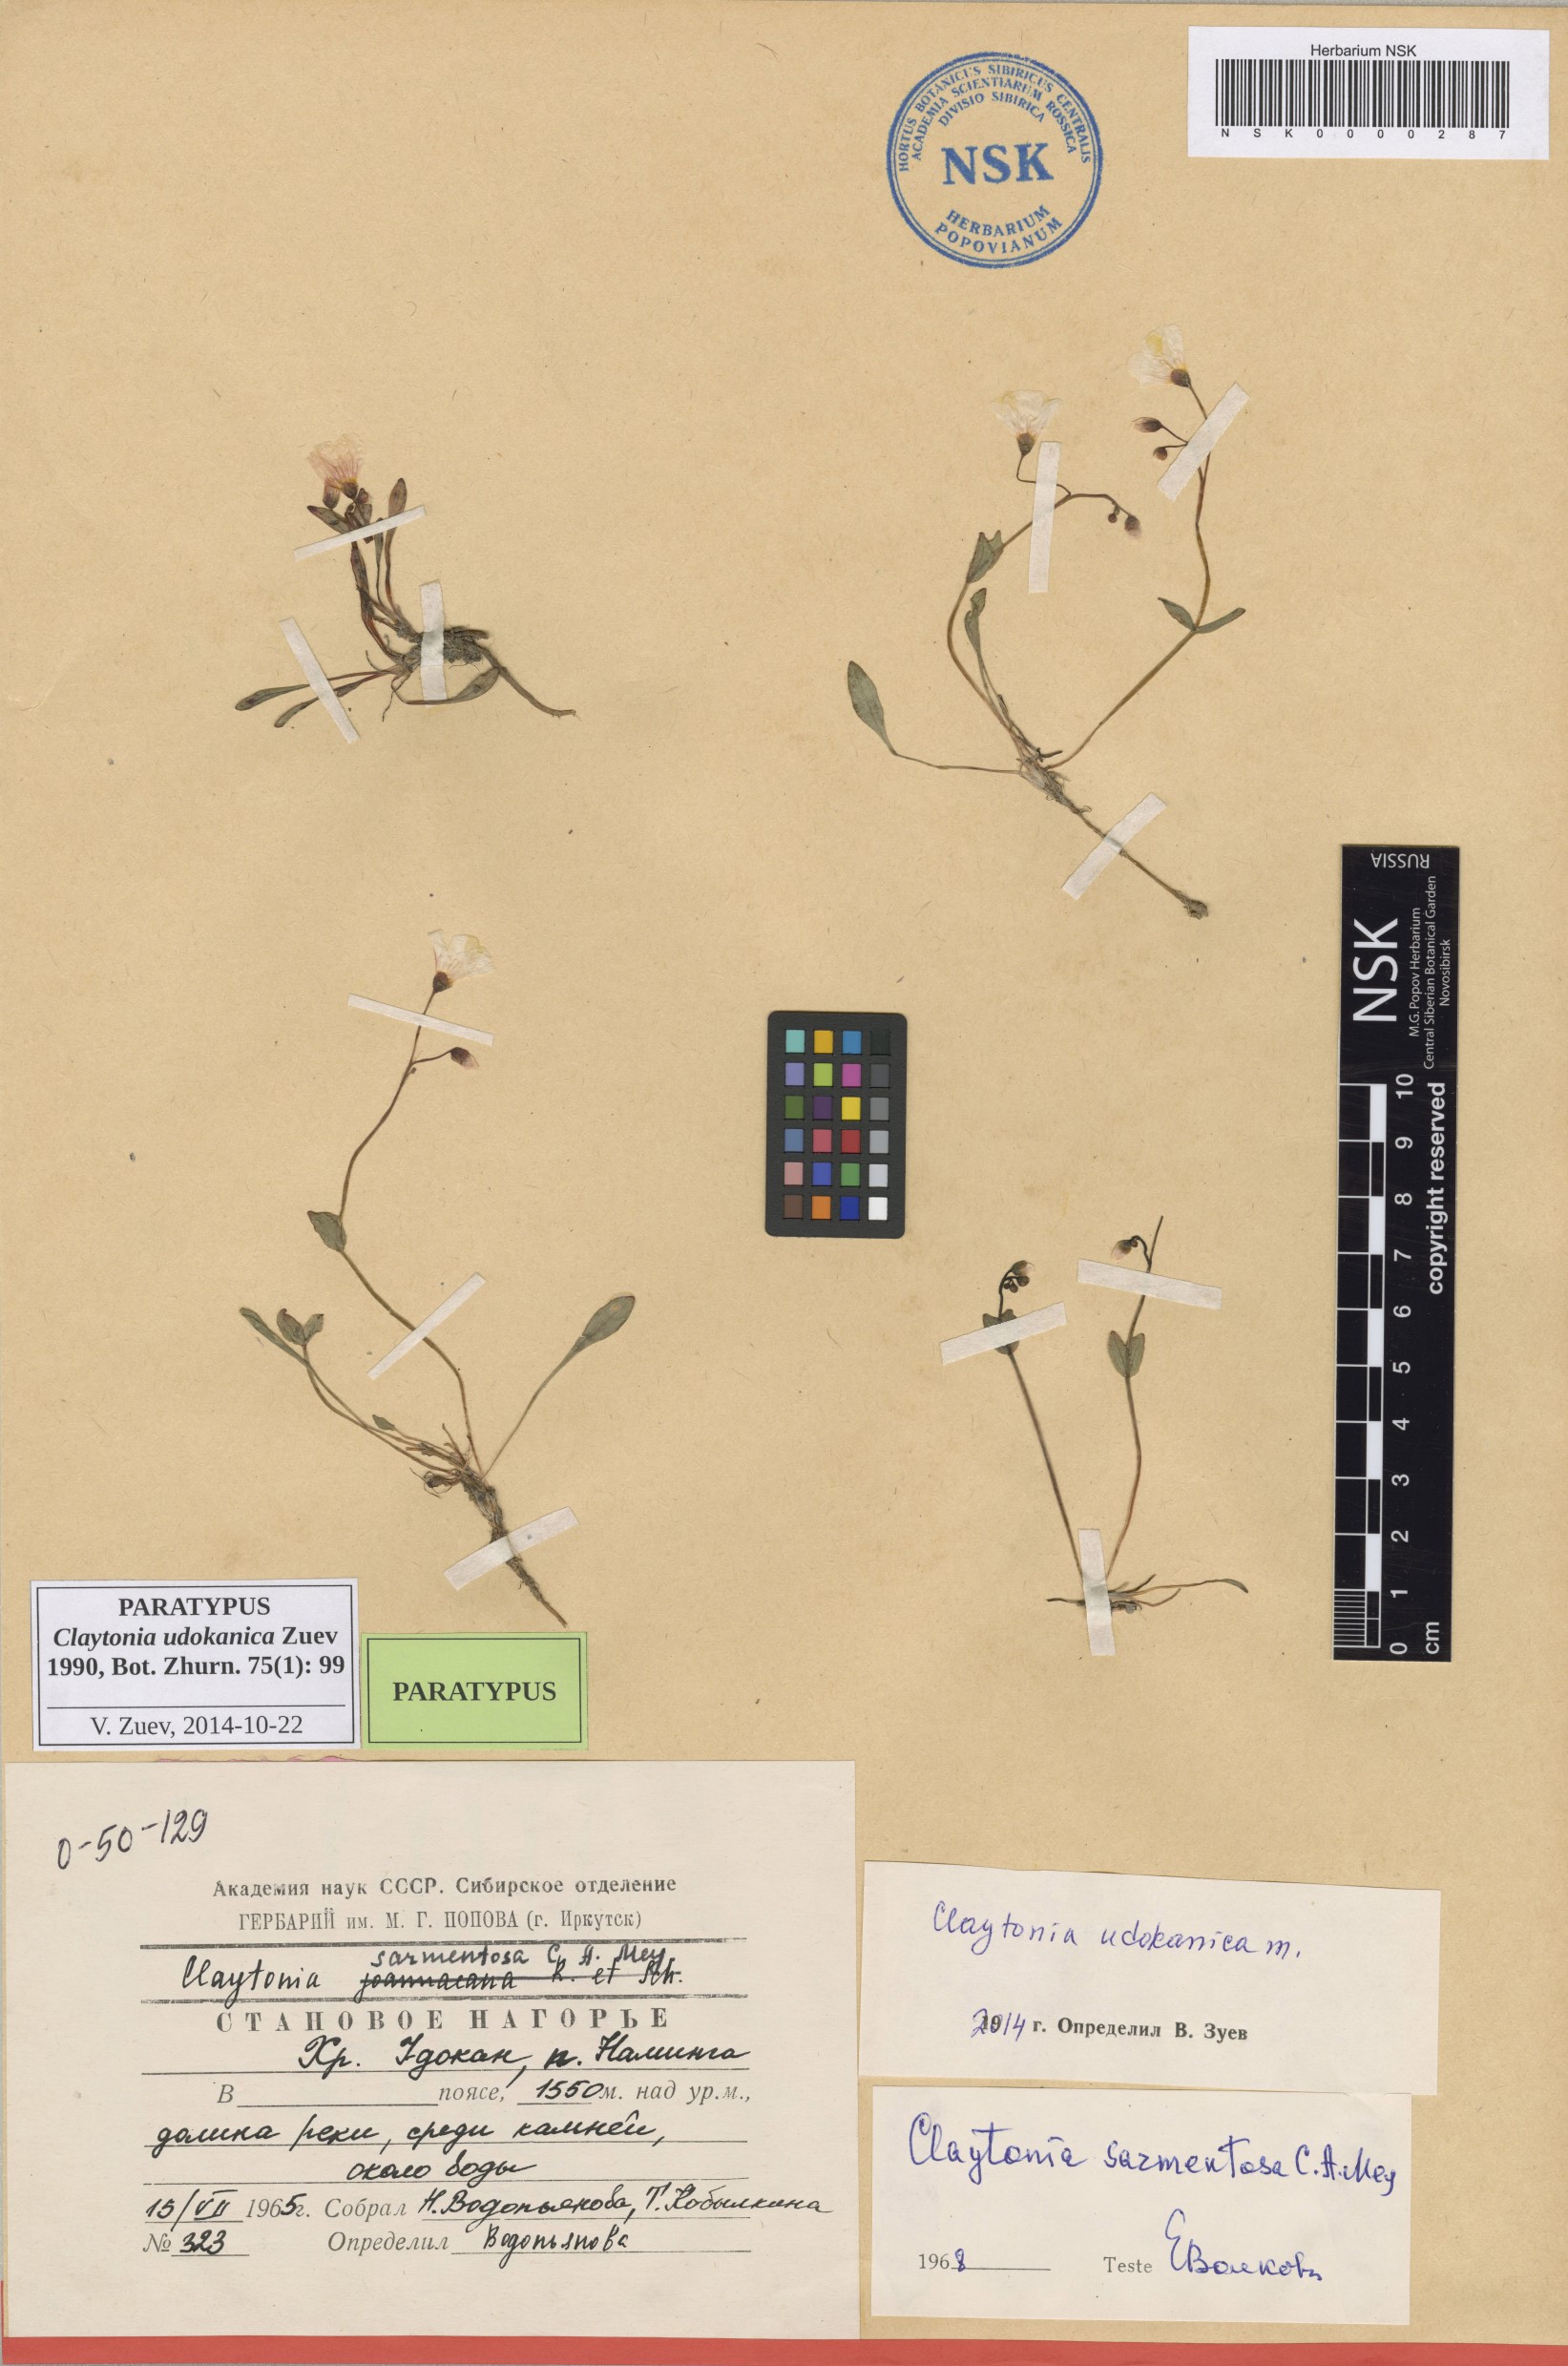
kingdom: Plantae
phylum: Tracheophyta
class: Magnoliopsida
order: Caryophyllales
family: Montiaceae
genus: Claytonia
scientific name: Claytonia udokanica
